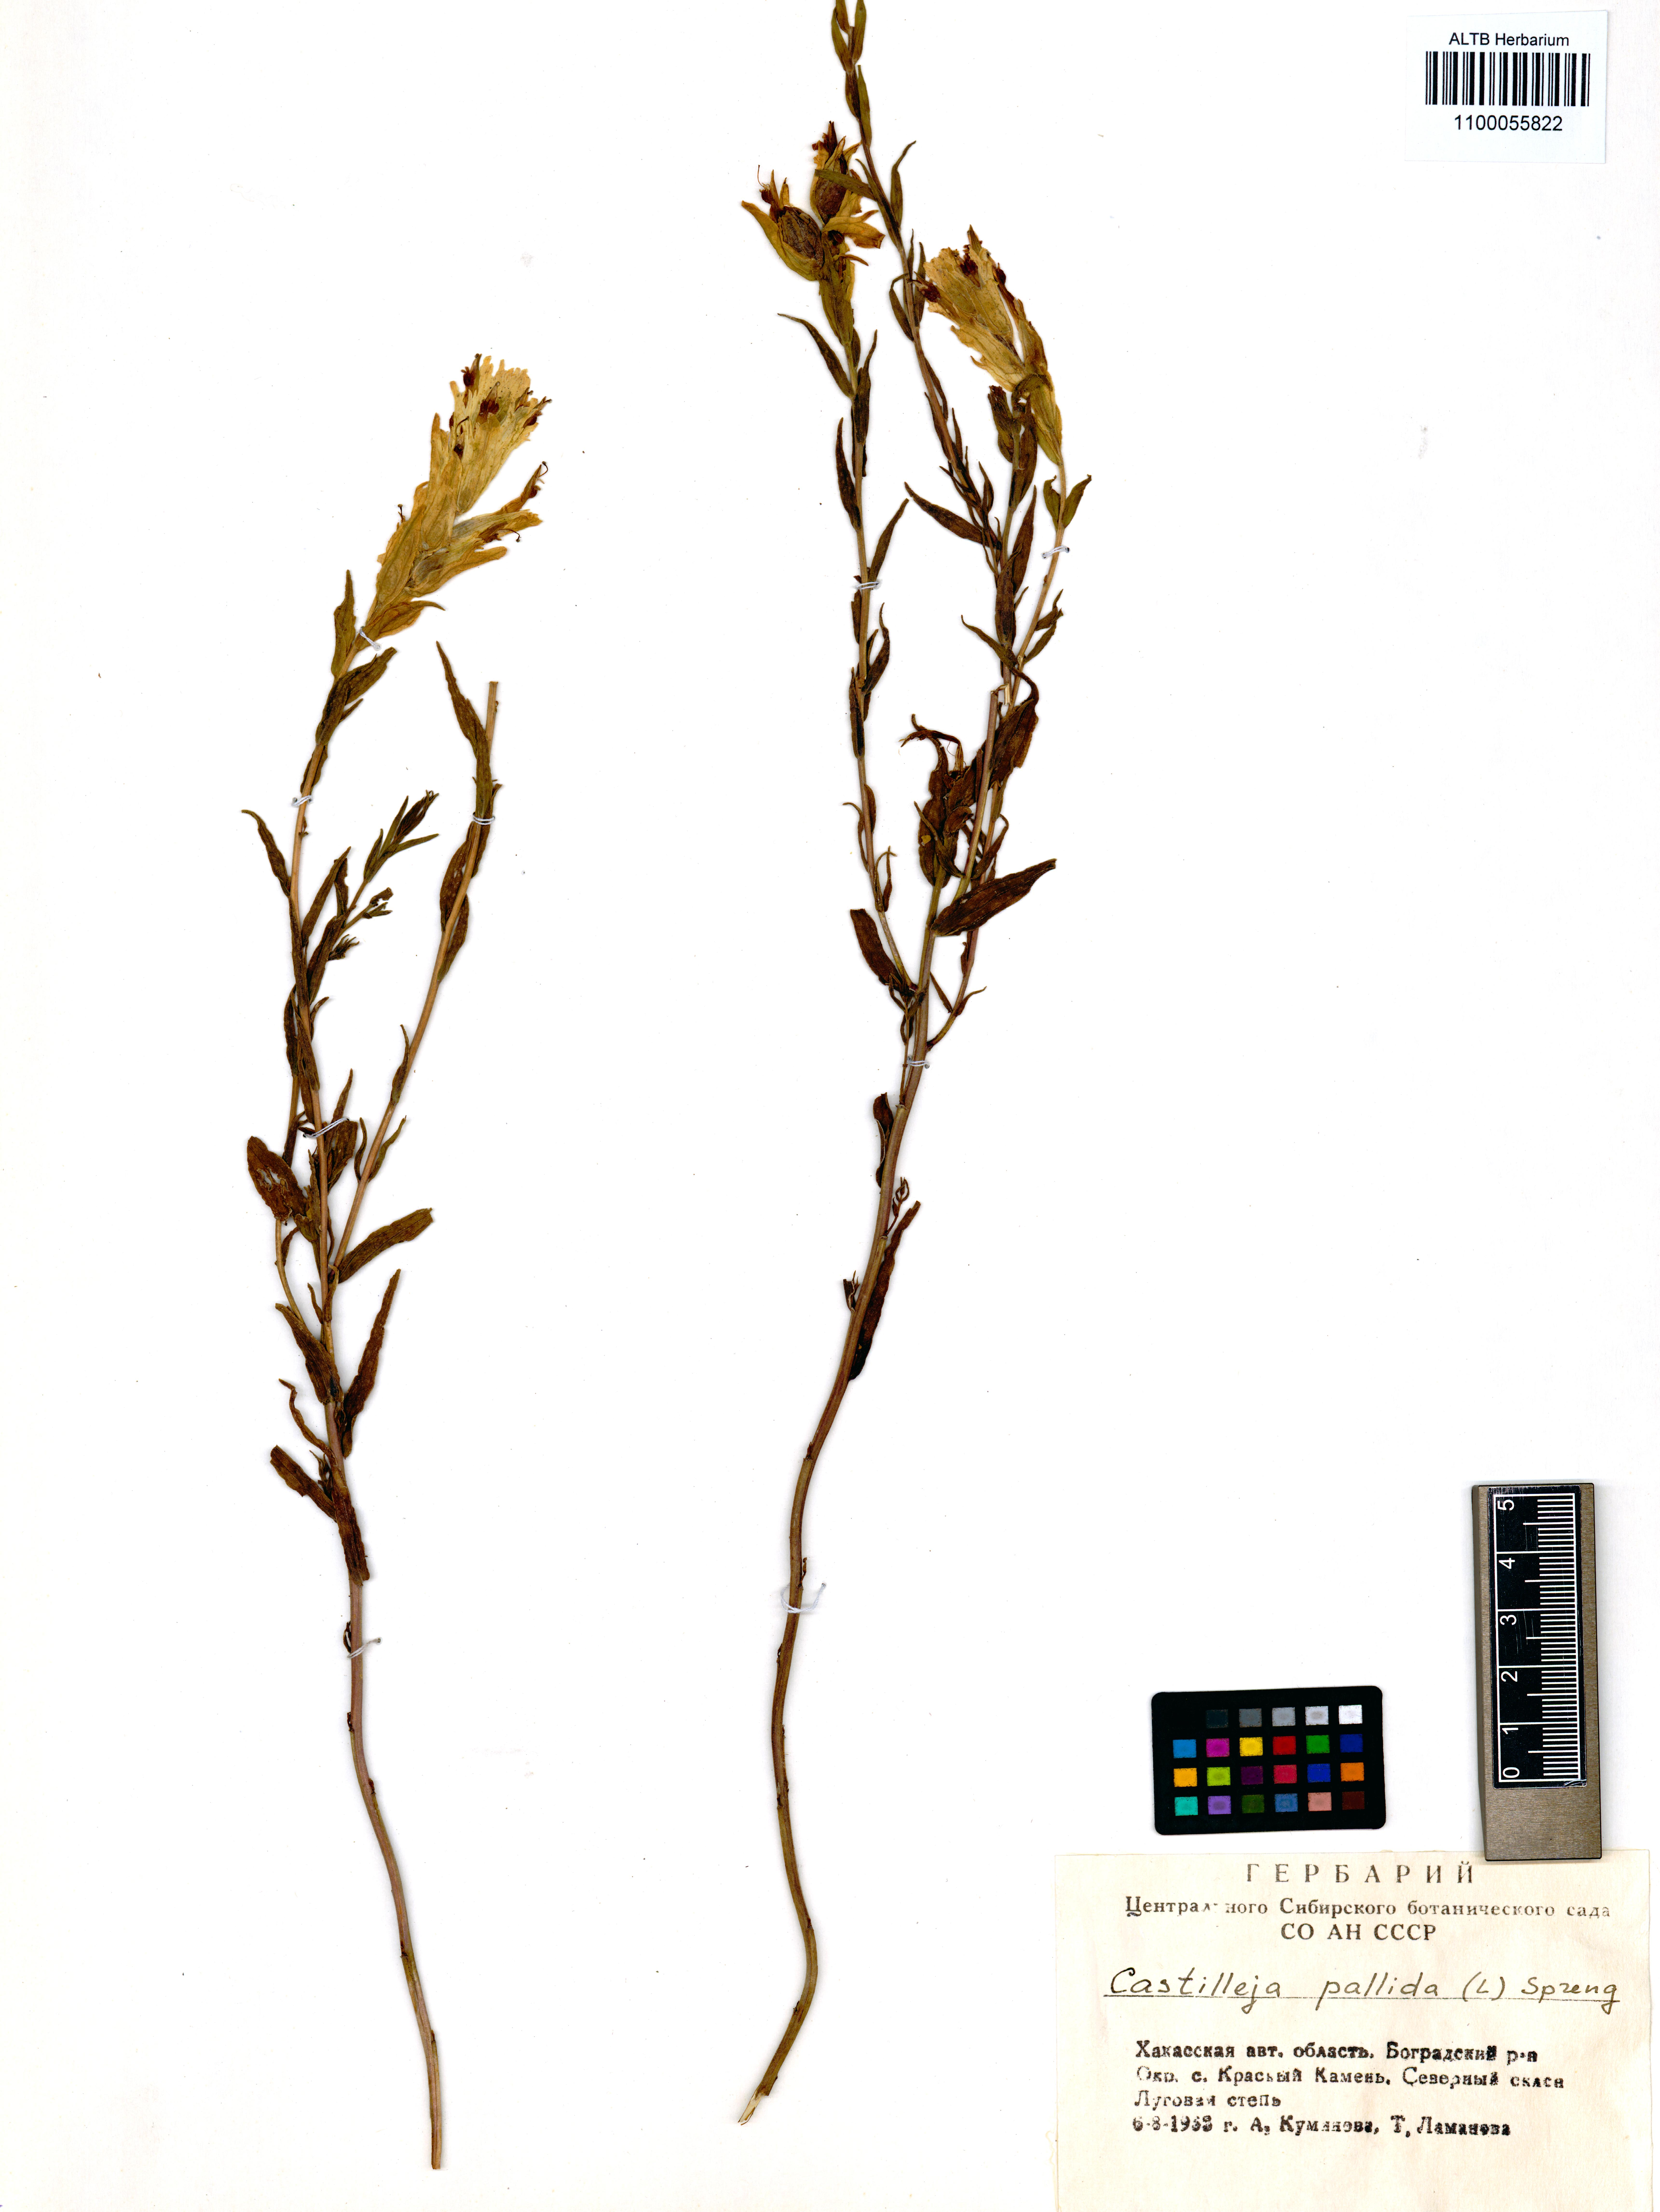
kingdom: Plantae
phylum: Tracheophyta
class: Magnoliopsida
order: Lamiales
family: Orobanchaceae
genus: Castilleja
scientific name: Castilleja pallida
